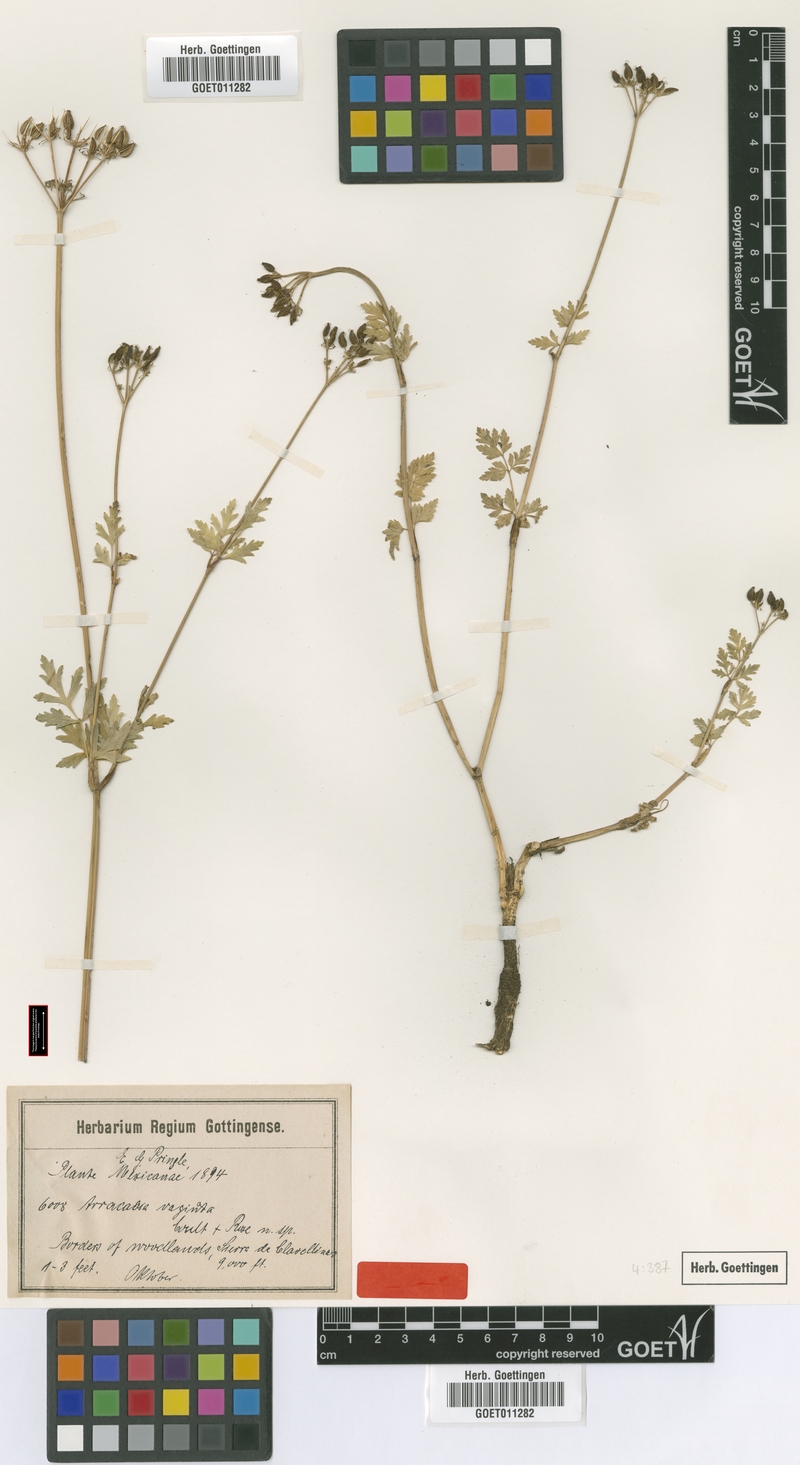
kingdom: Plantae
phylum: Tracheophyta
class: Magnoliopsida
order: Apiales
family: Apiaceae
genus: Tauschia
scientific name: Tauschia vaginata
